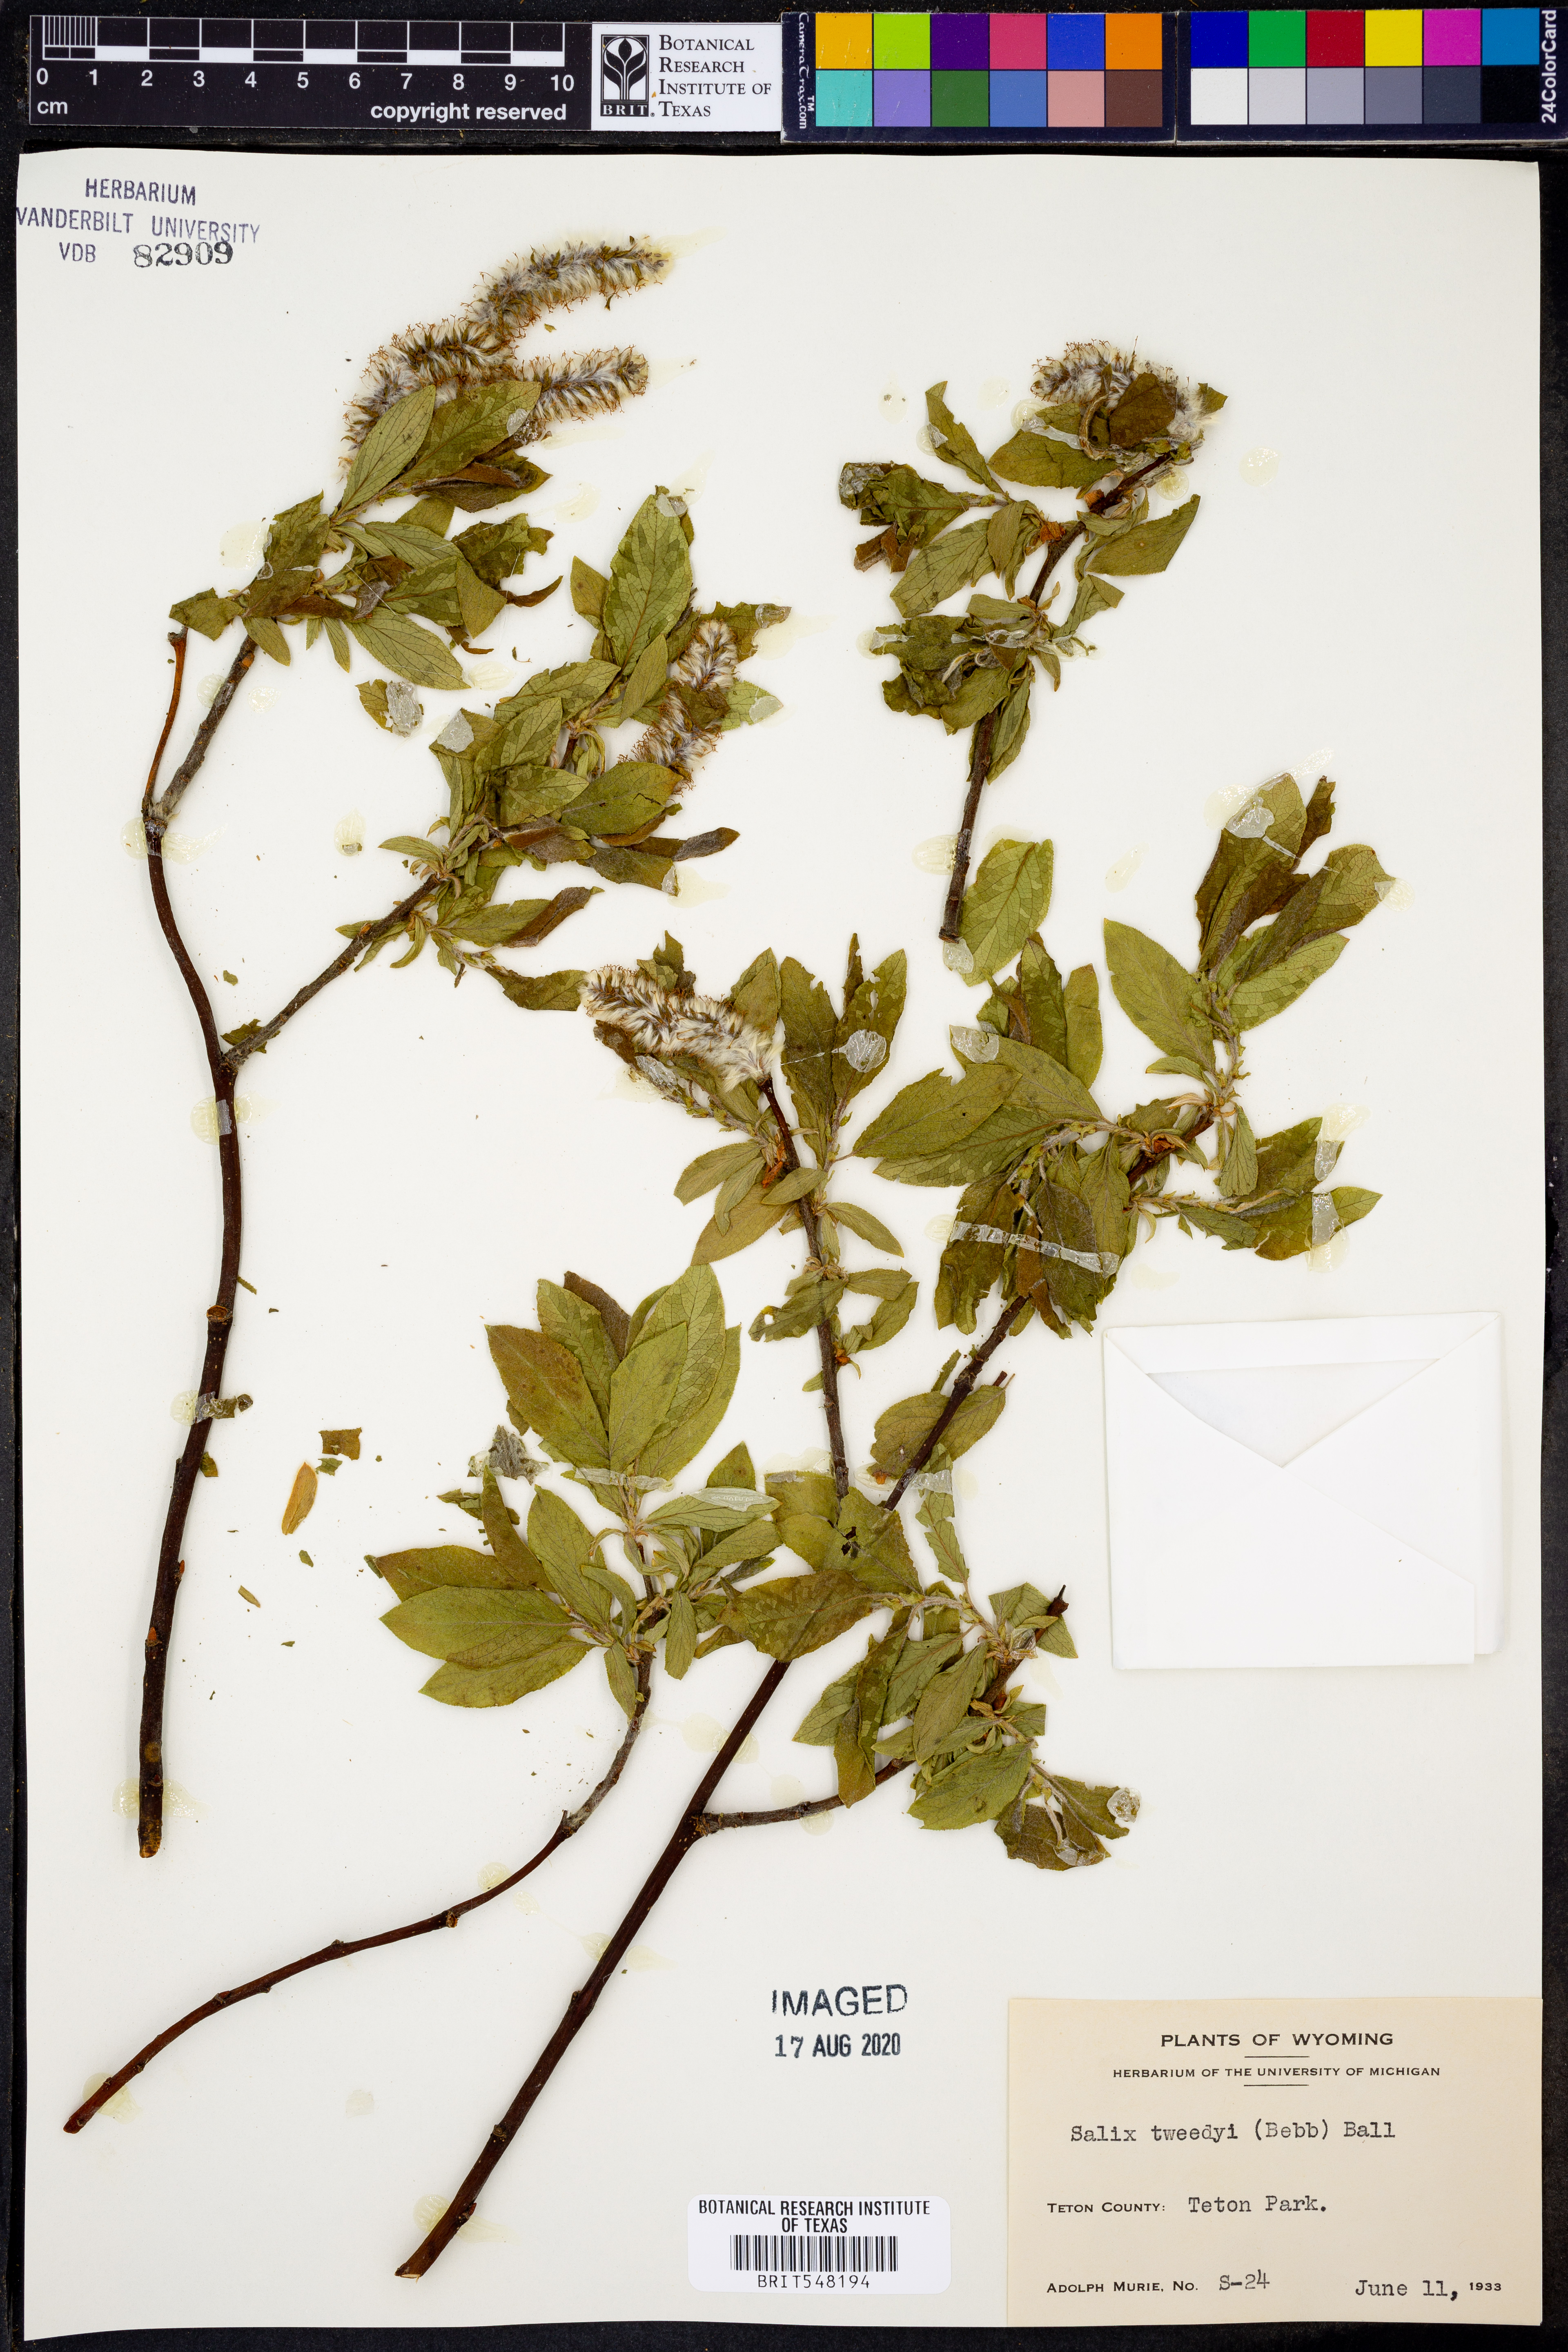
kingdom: Plantae
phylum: Tracheophyta
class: Magnoliopsida
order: Malpighiales
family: Salicaceae
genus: Salix
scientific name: Salix tweedyi
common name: Tweedy's willow
